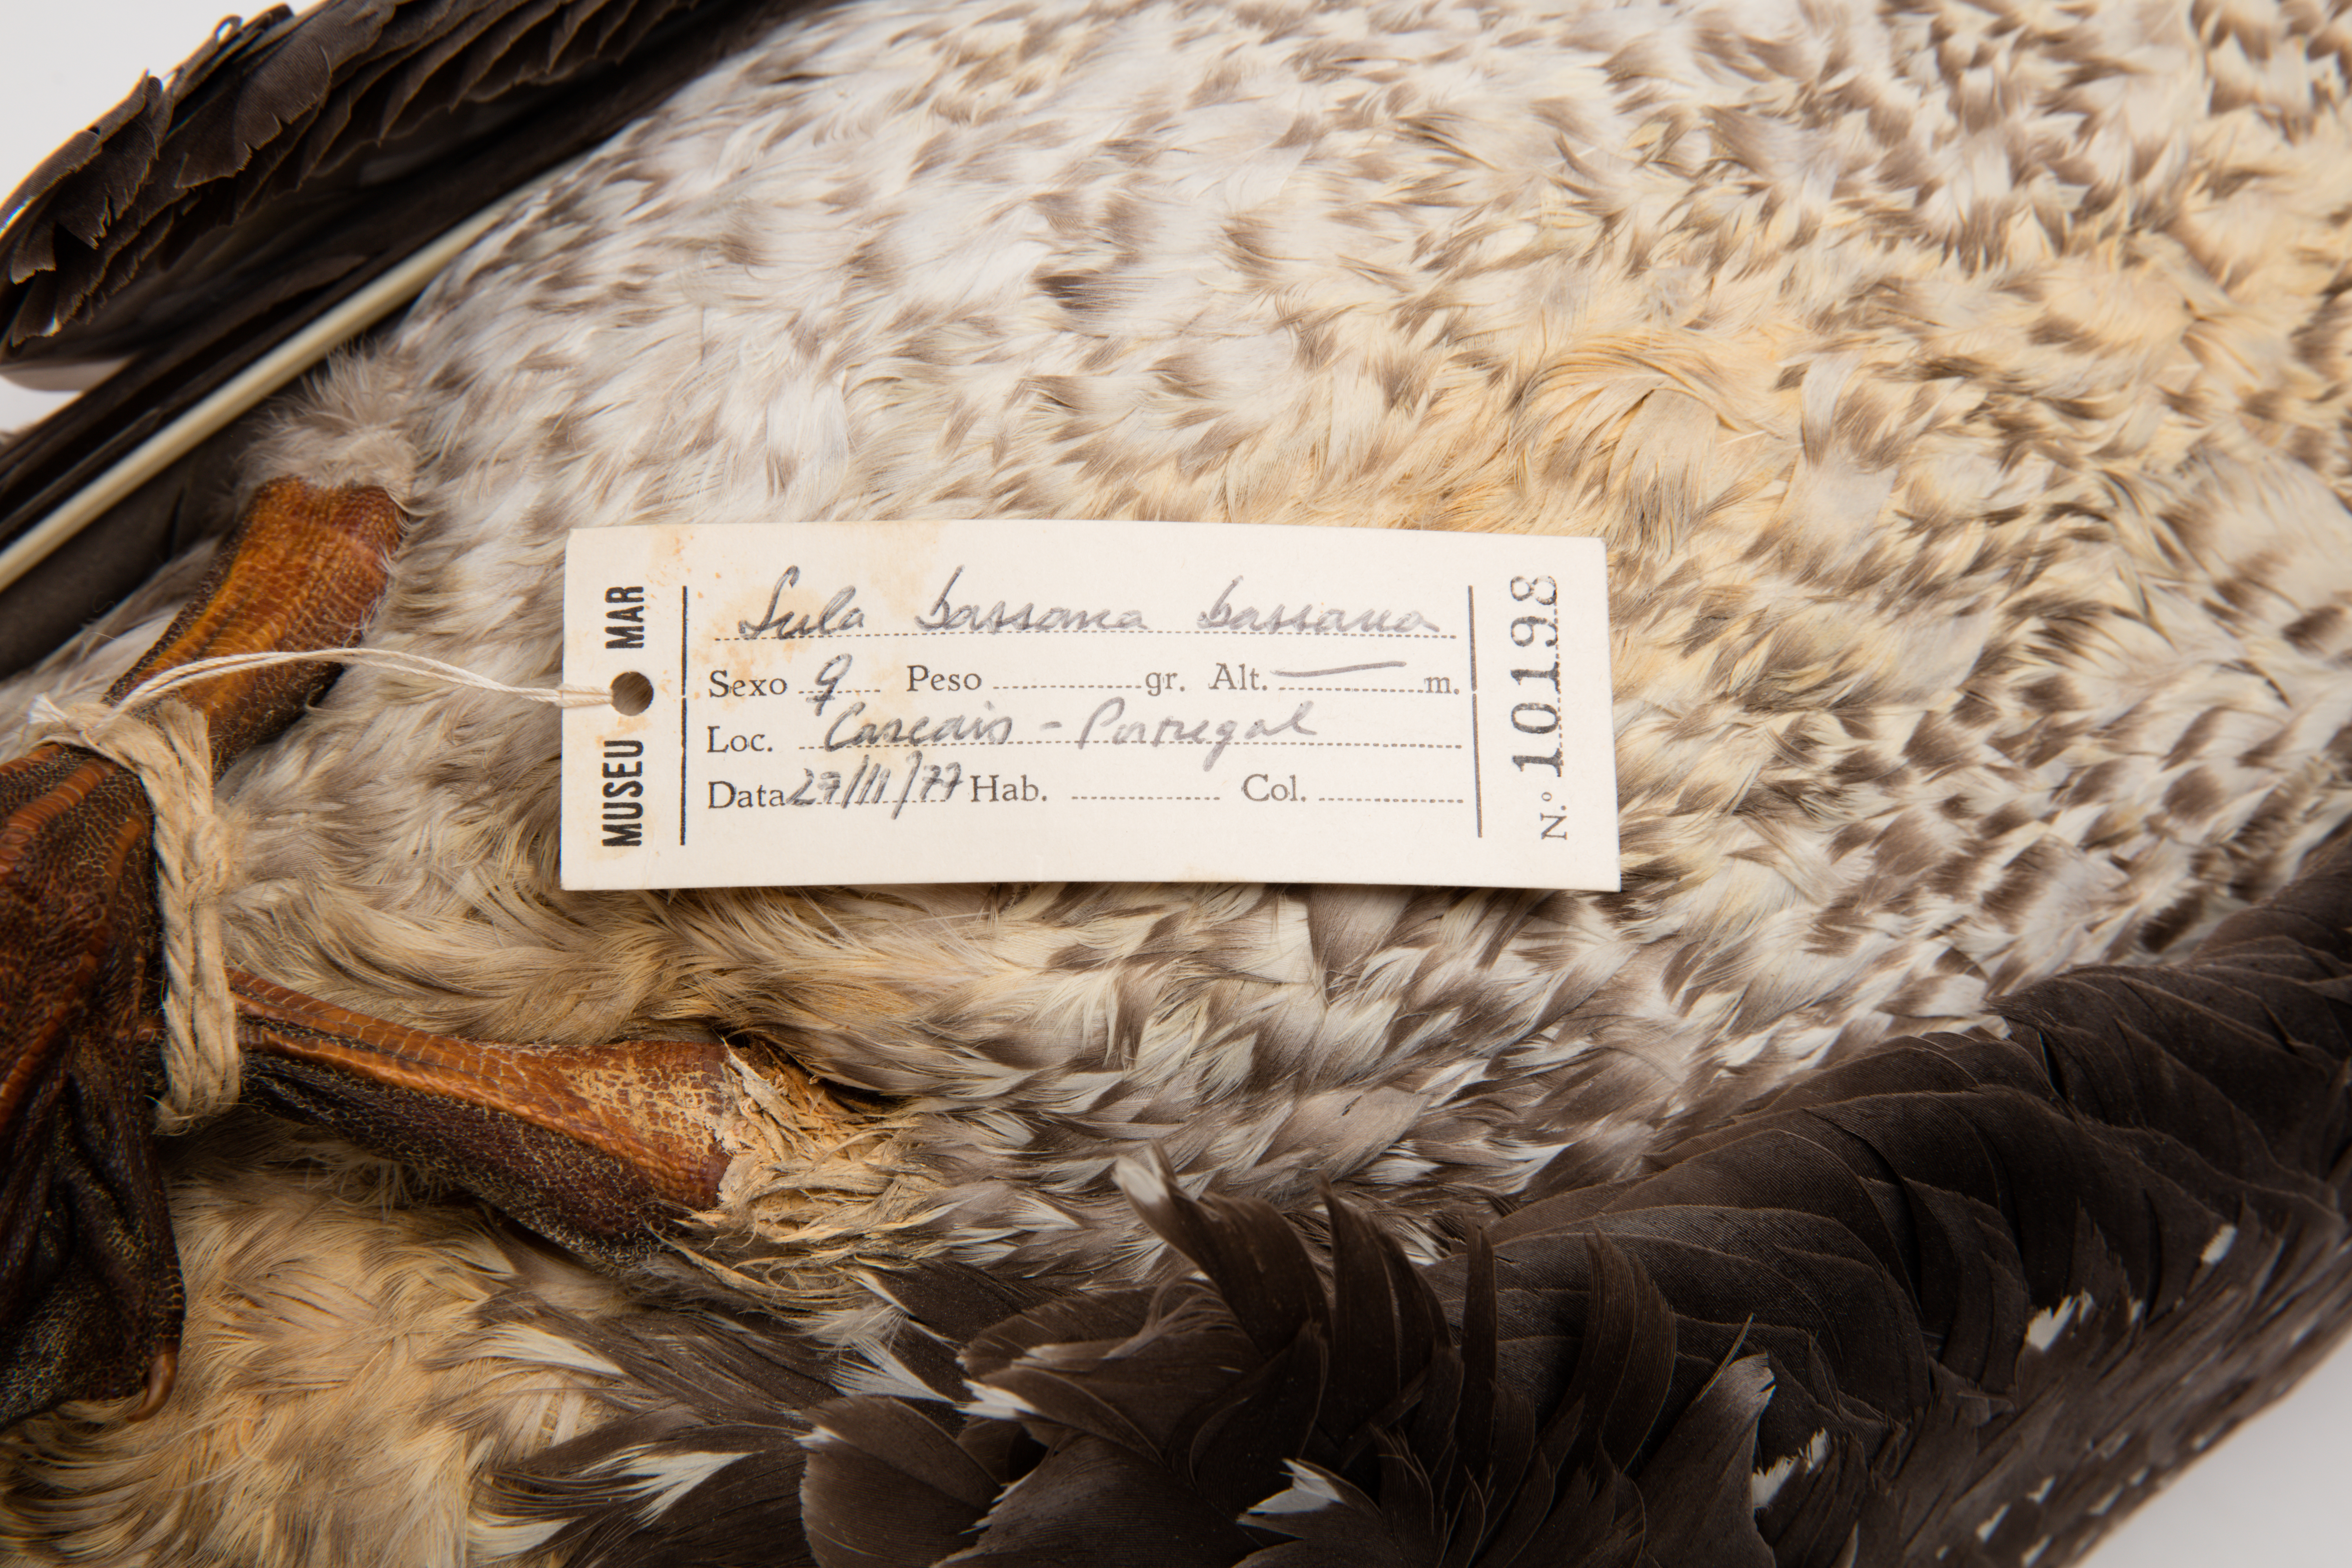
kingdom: Animalia
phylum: Chordata
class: Aves
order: Suliformes
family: Sulidae
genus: Morus
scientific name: Morus bassanus
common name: Northern gannet
